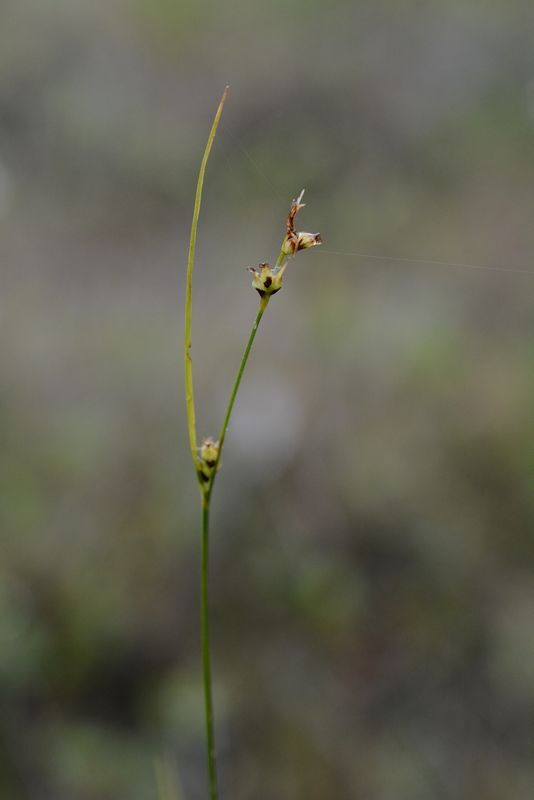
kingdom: Plantae
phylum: Tracheophyta
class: Liliopsida
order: Poales
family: Cyperaceae
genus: Carex
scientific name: Carex globularis
